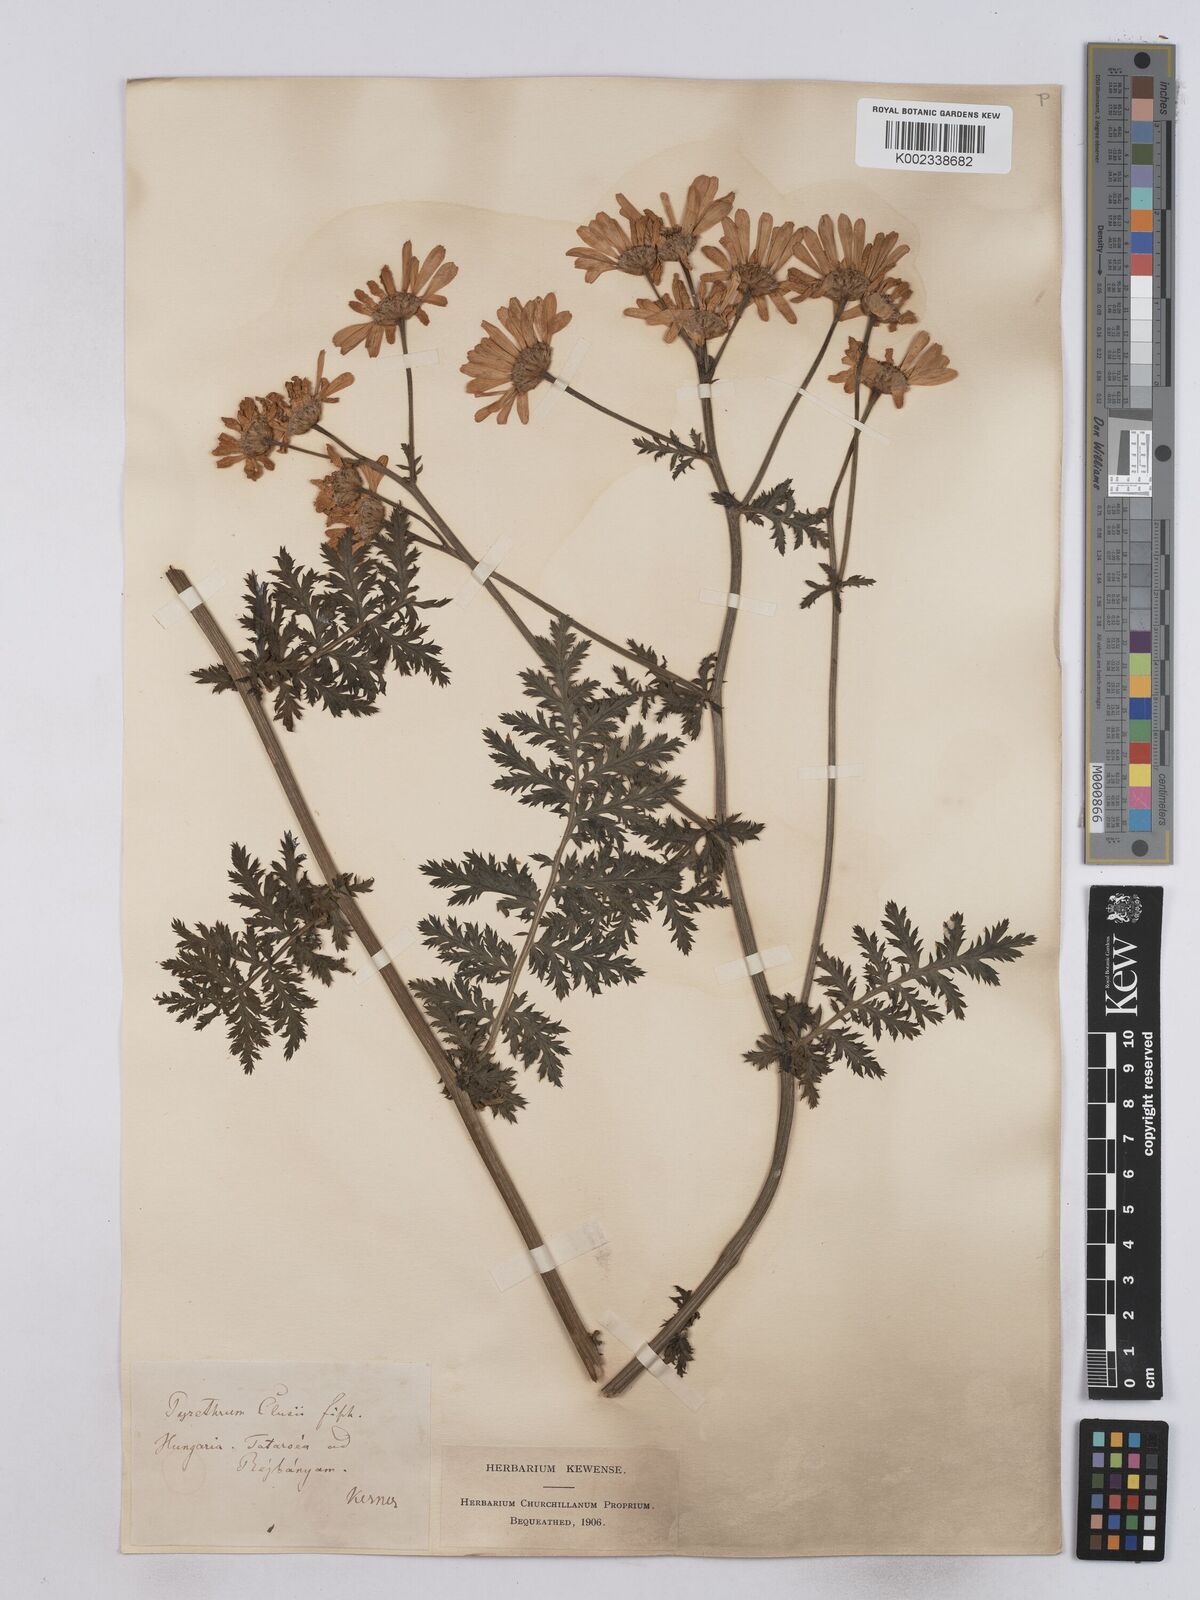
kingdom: Plantae
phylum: Tracheophyta
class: Magnoliopsida
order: Asterales
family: Asteraceae
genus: Tanacetum
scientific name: Tanacetum corymbosum
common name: Scentless feverfew
